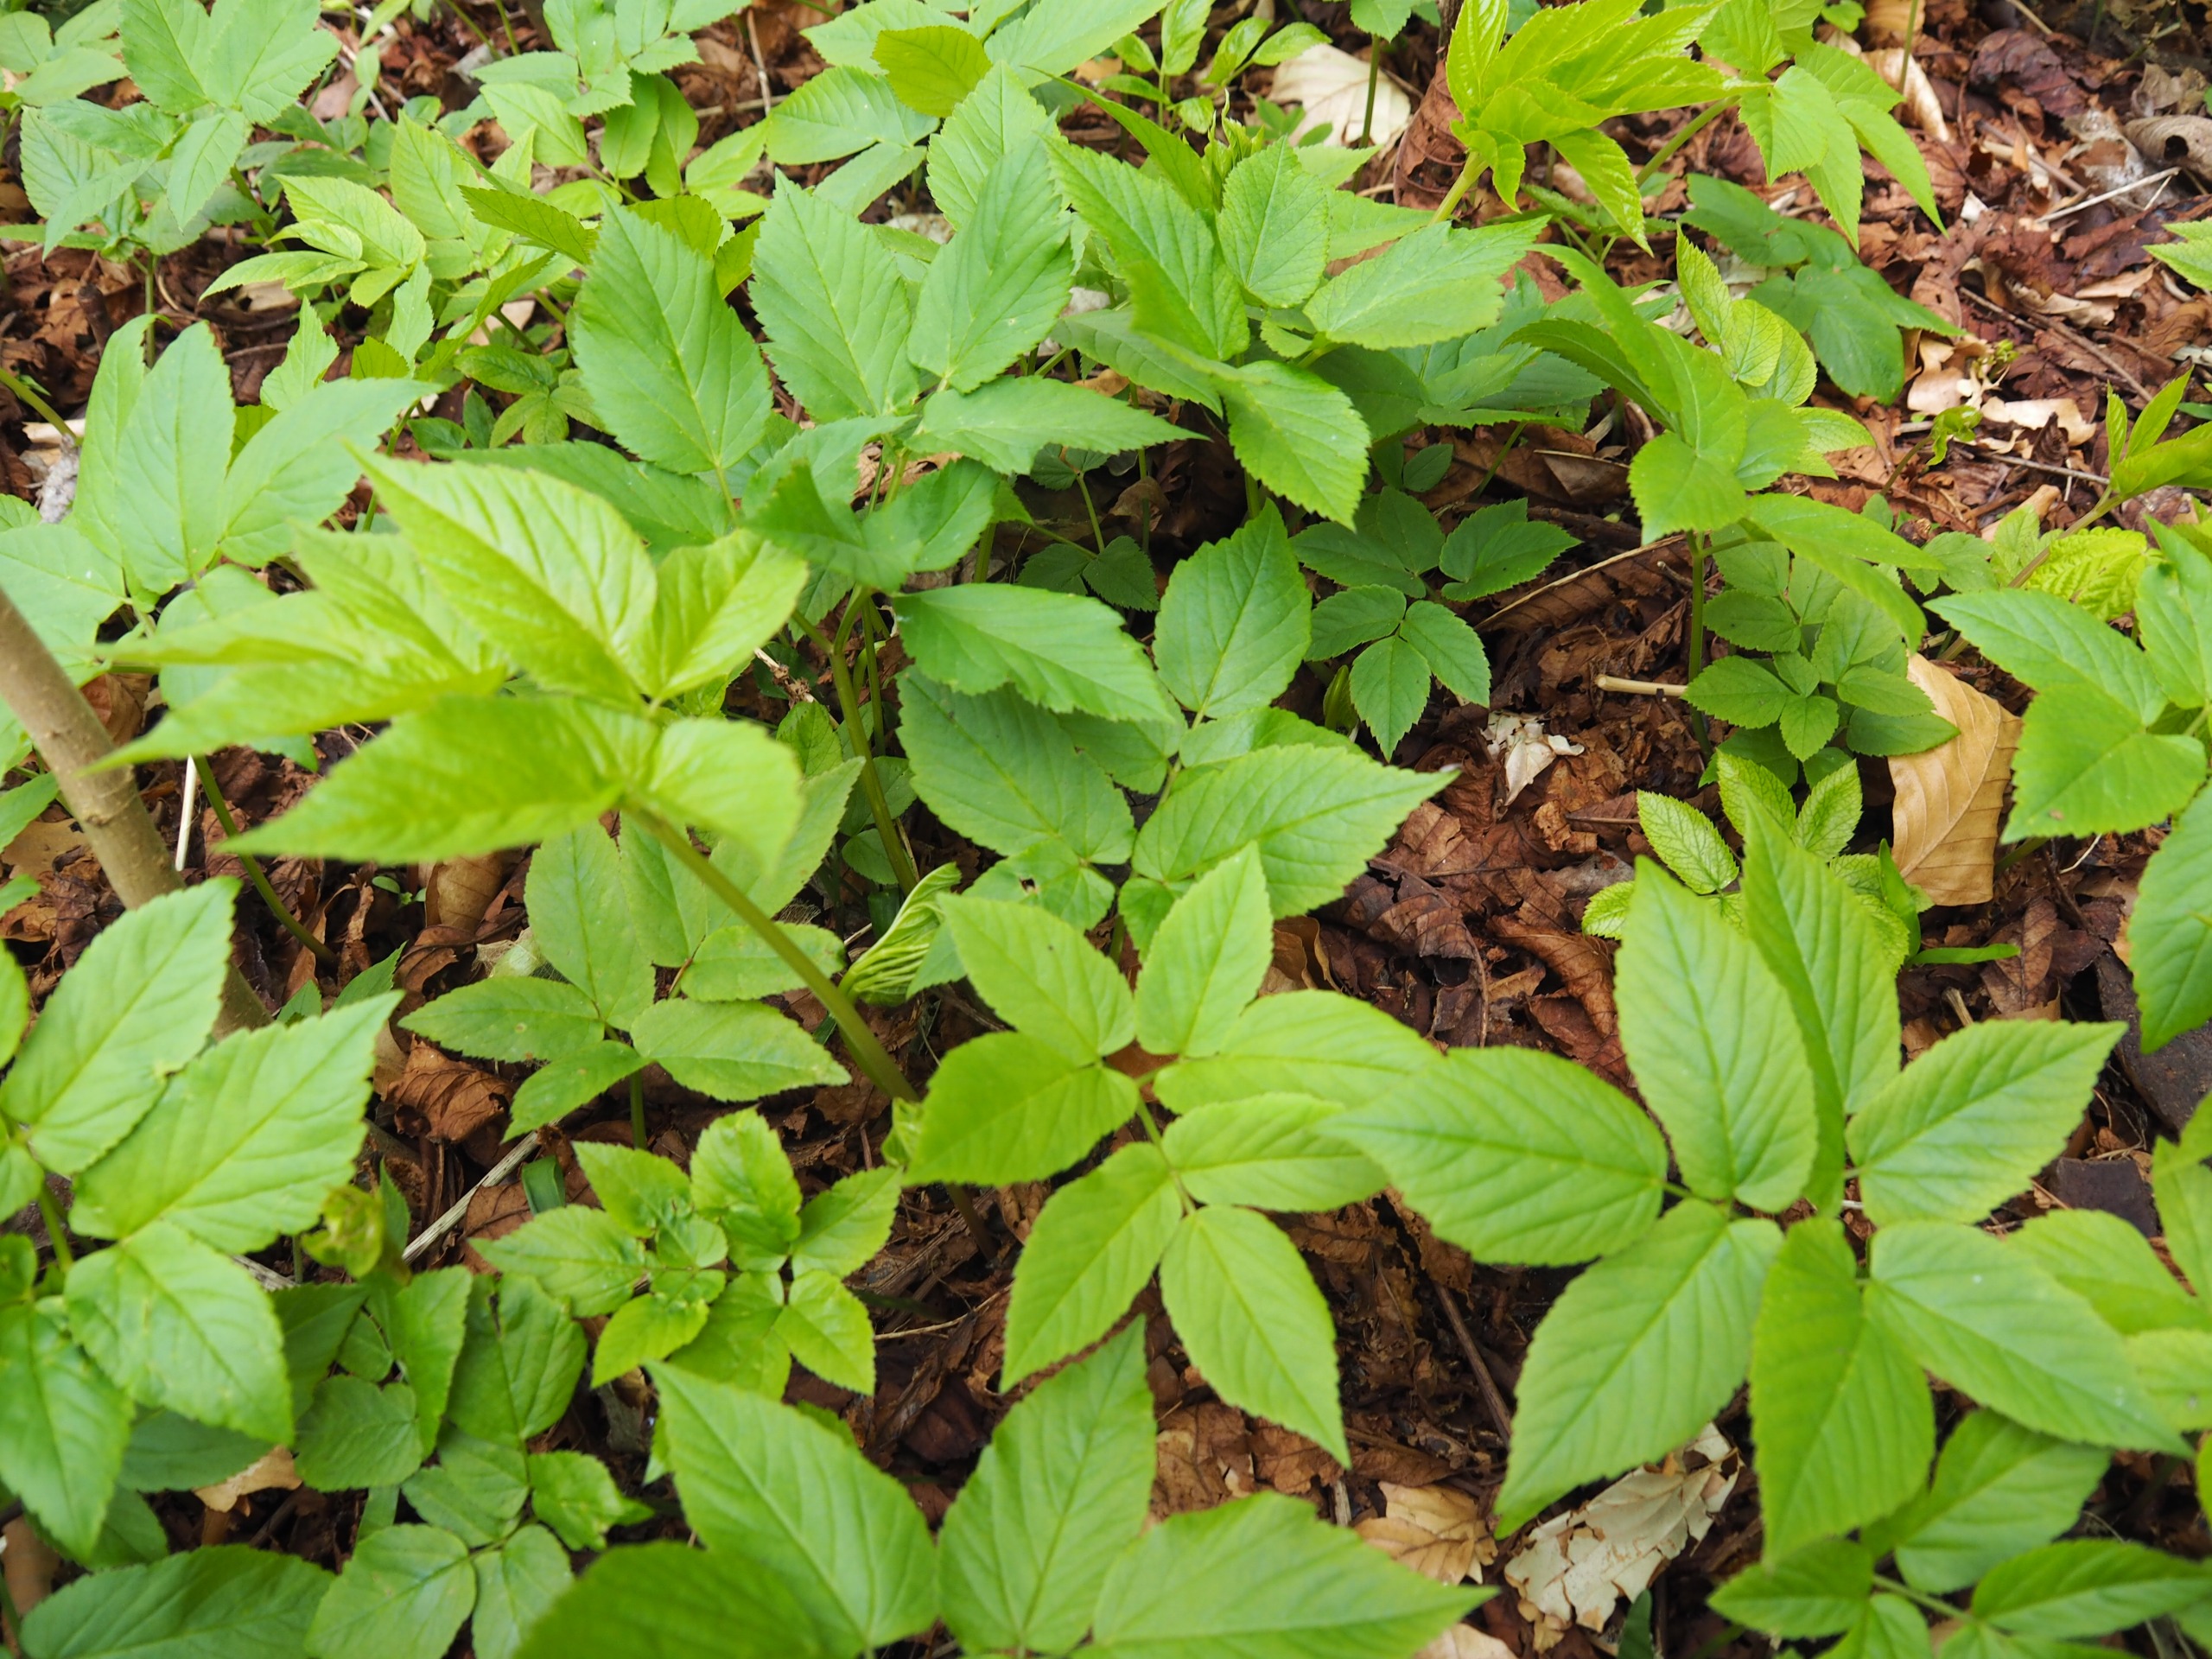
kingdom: Plantae
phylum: Tracheophyta
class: Magnoliopsida
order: Apiales
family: Apiaceae
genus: Aegopodium
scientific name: Aegopodium podagraria
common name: Skvalderkål
